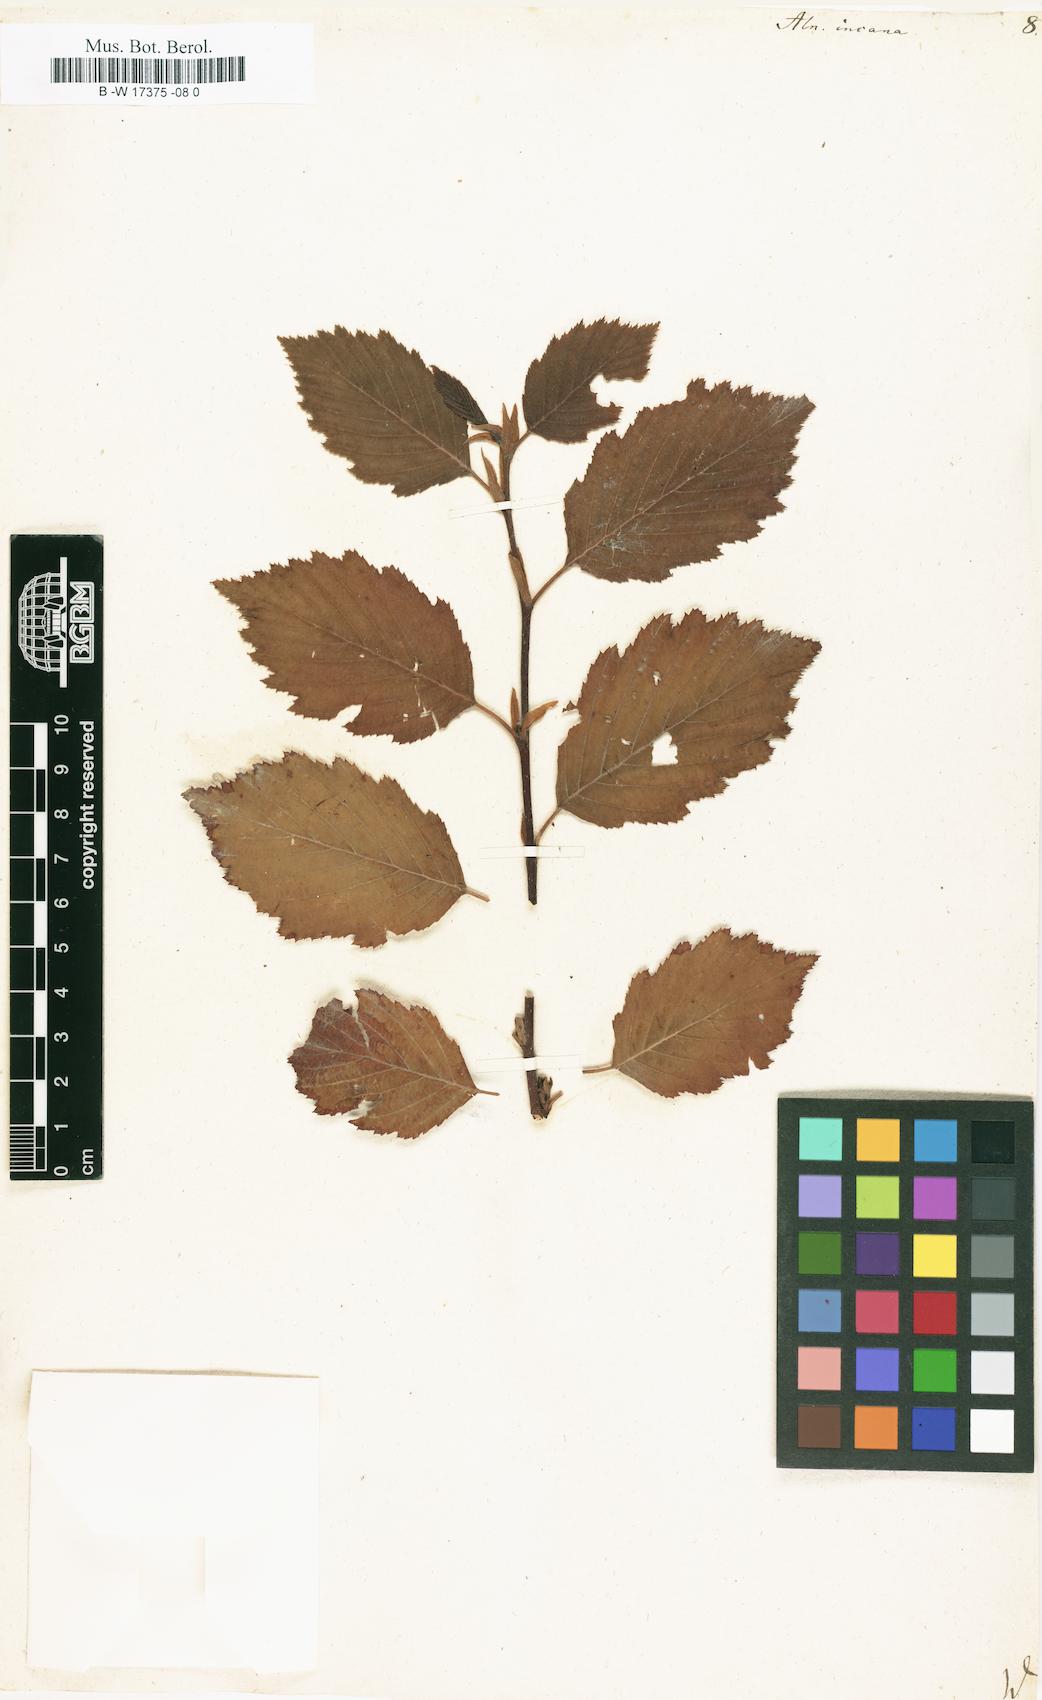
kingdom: Plantae
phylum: Tracheophyta
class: Magnoliopsida
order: Fagales
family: Betulaceae
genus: Alnus
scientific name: Alnus incana
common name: Grey alder
